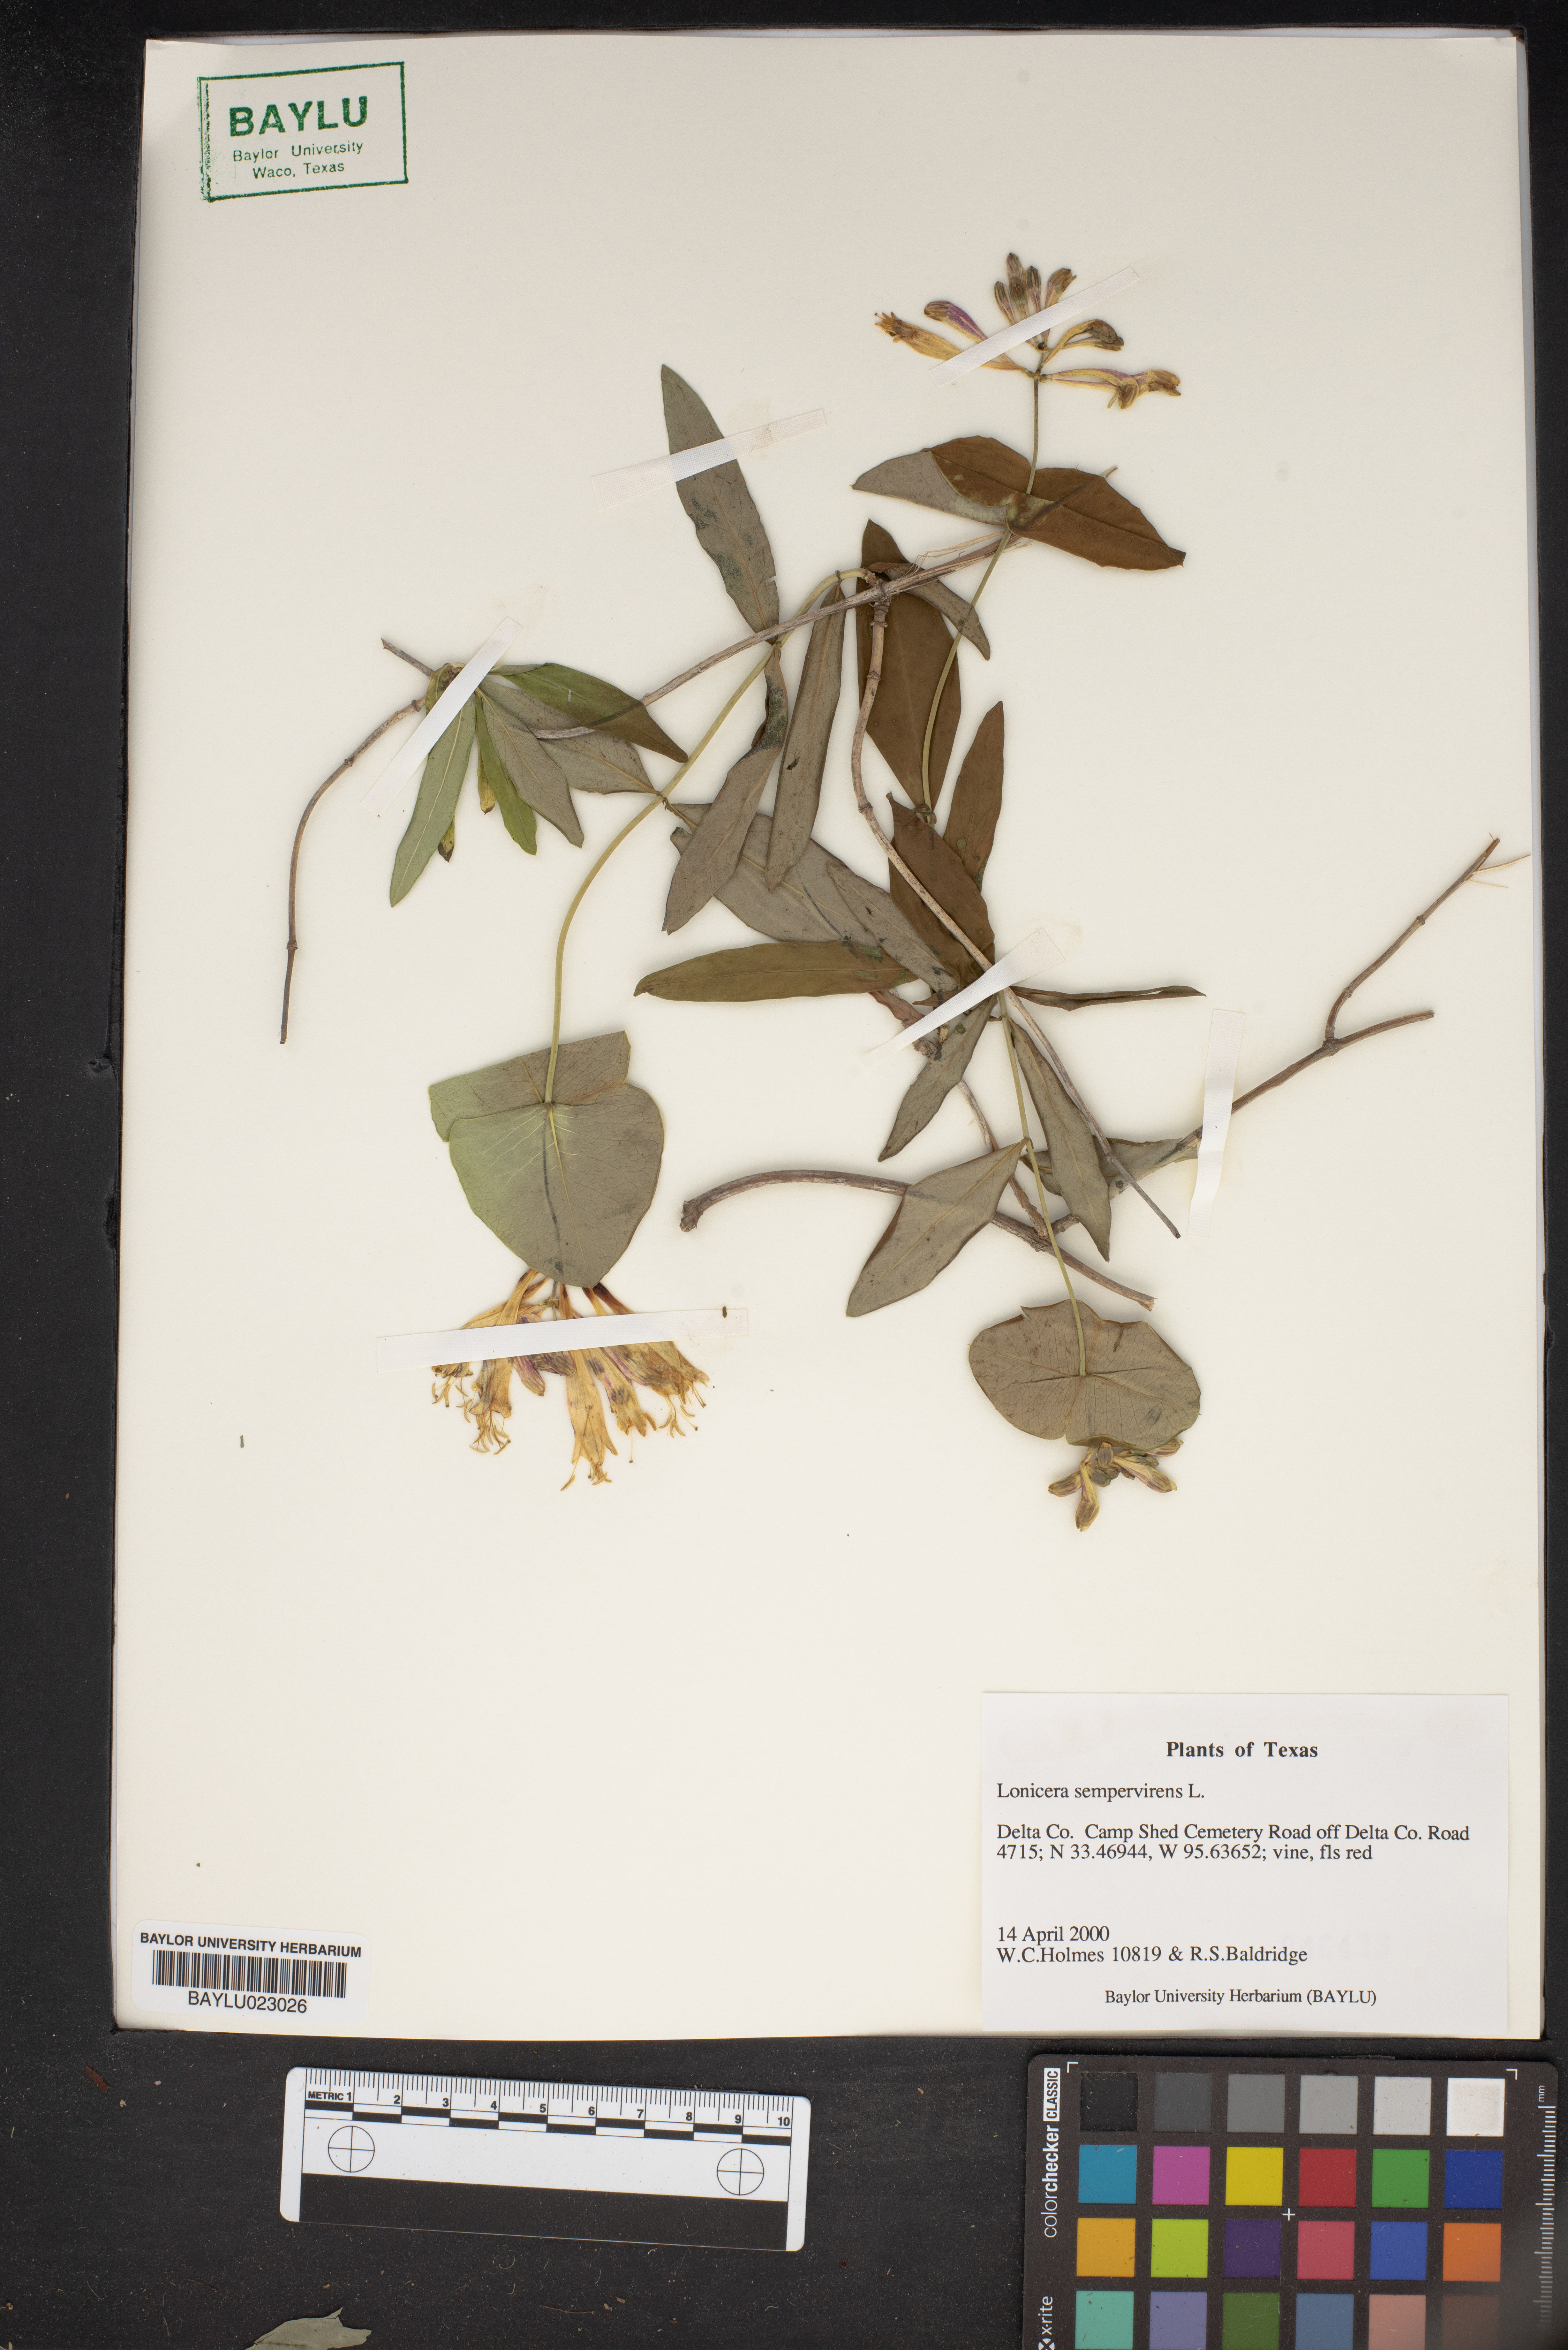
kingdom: Plantae
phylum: Tracheophyta
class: Magnoliopsida
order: Dipsacales
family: Caprifoliaceae
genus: Lonicera
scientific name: Lonicera sempervirens
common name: Coral honeysuckle
